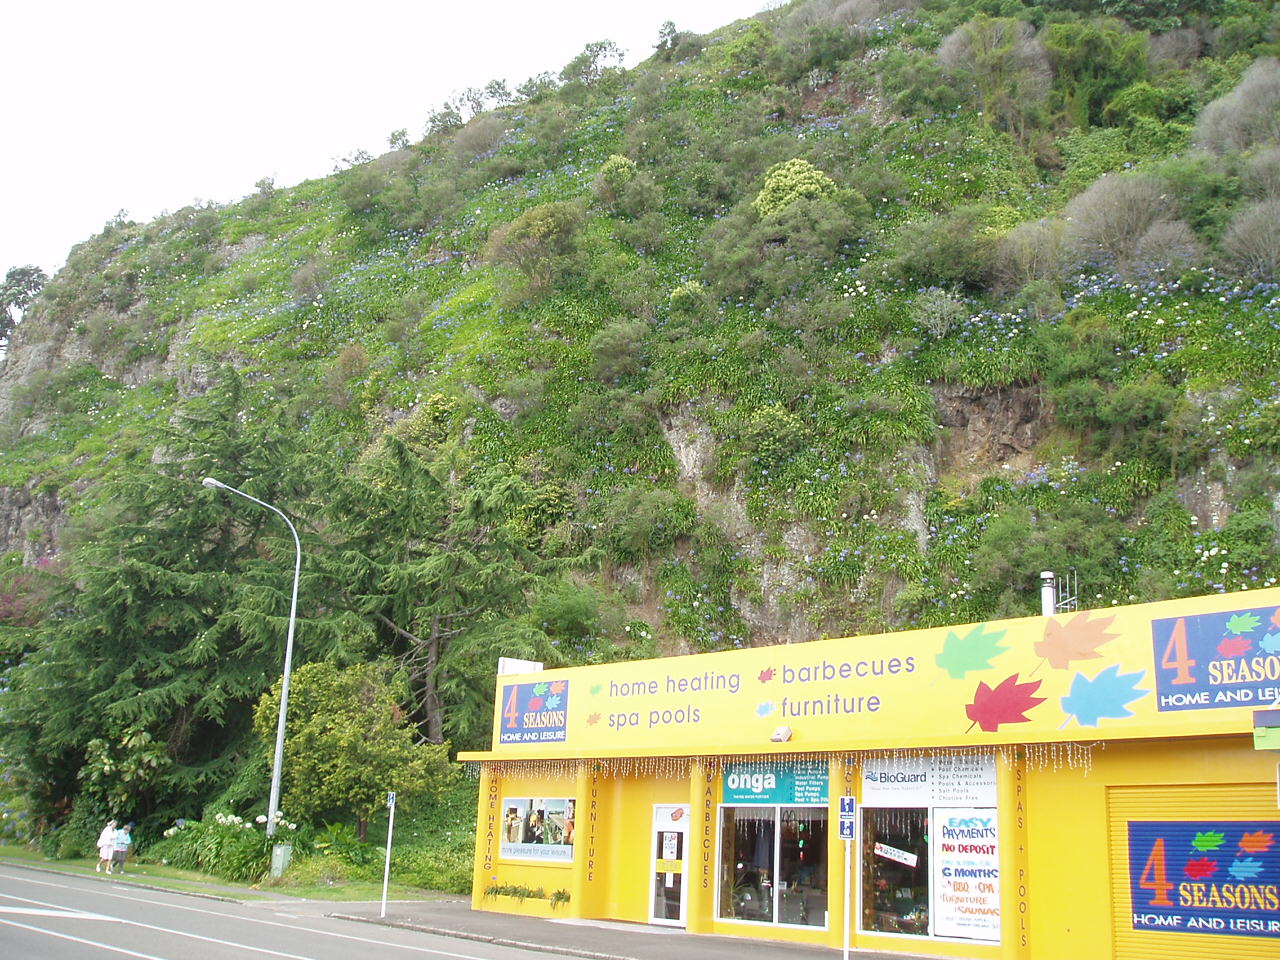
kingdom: Plantae
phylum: Tracheophyta
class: Liliopsida
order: Asparagales
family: Amaryllidaceae
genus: Agapanthus
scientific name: Agapanthus praecox
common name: African-lily
